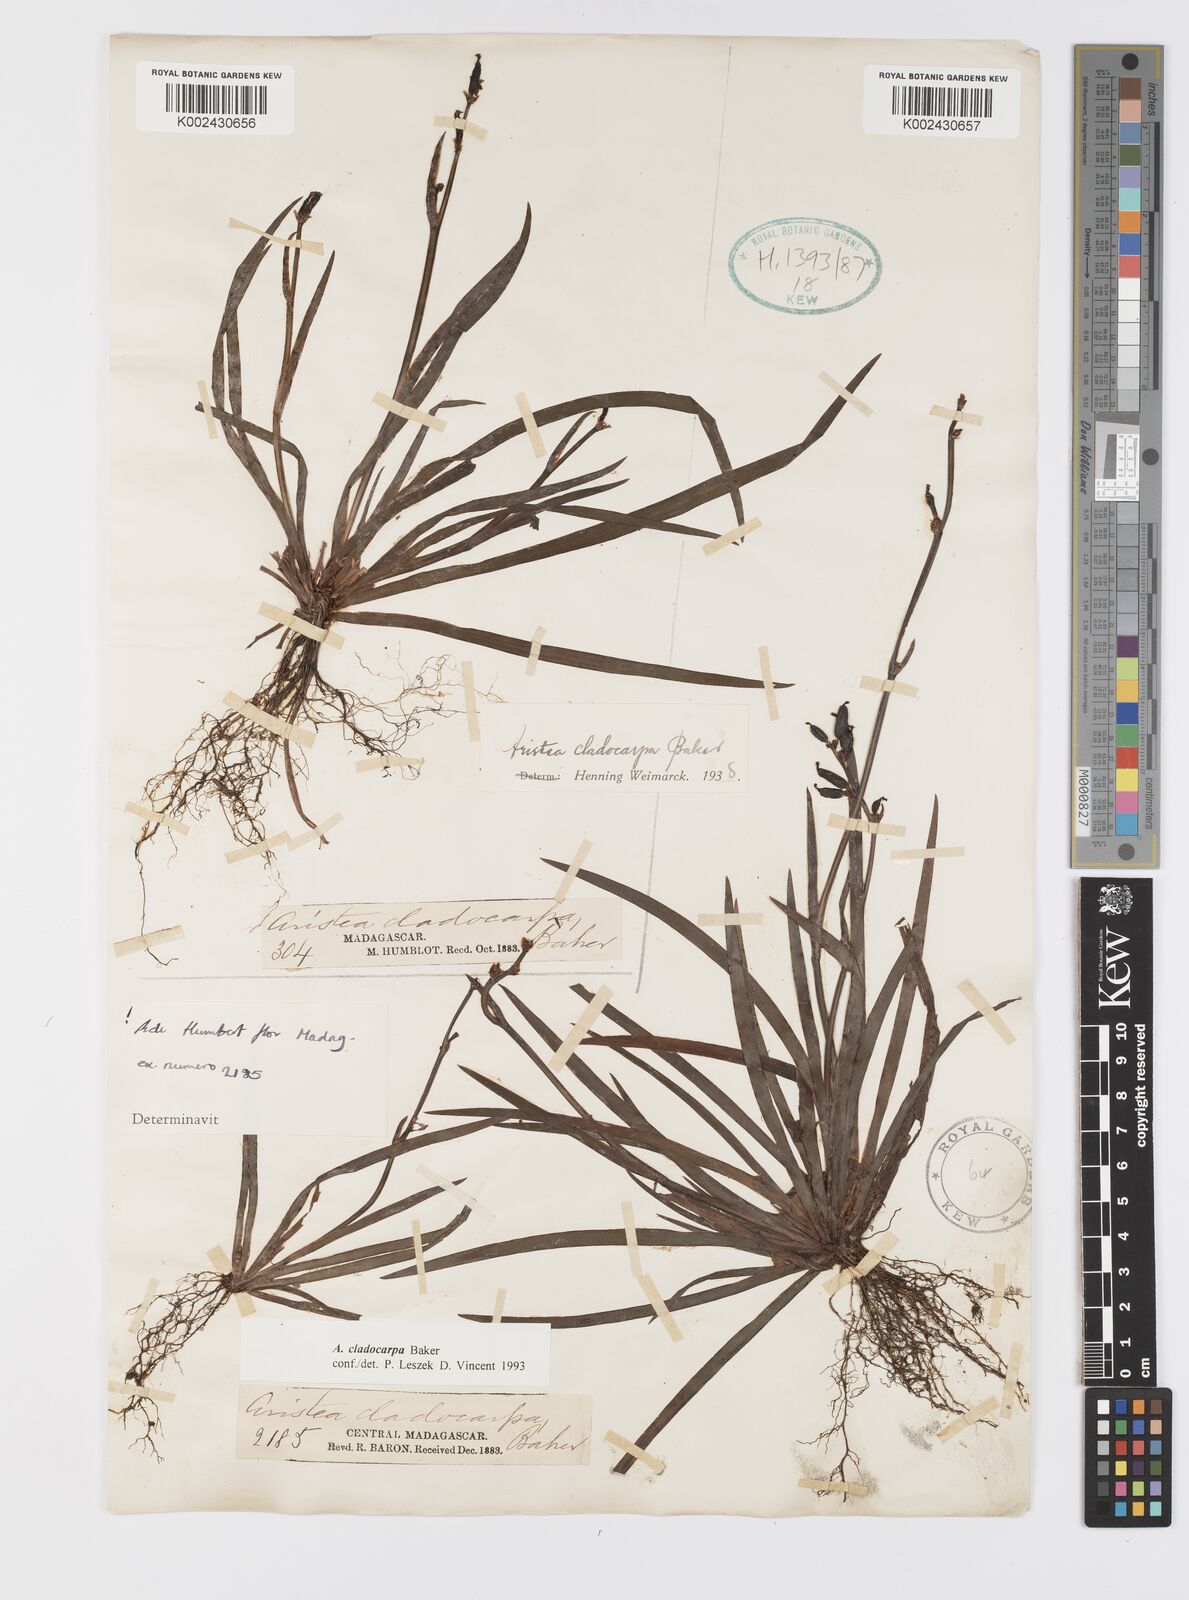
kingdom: Plantae
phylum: Tracheophyta
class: Liliopsida
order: Asparagales
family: Iridaceae
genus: Aristea
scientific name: Aristea cladocarpa
